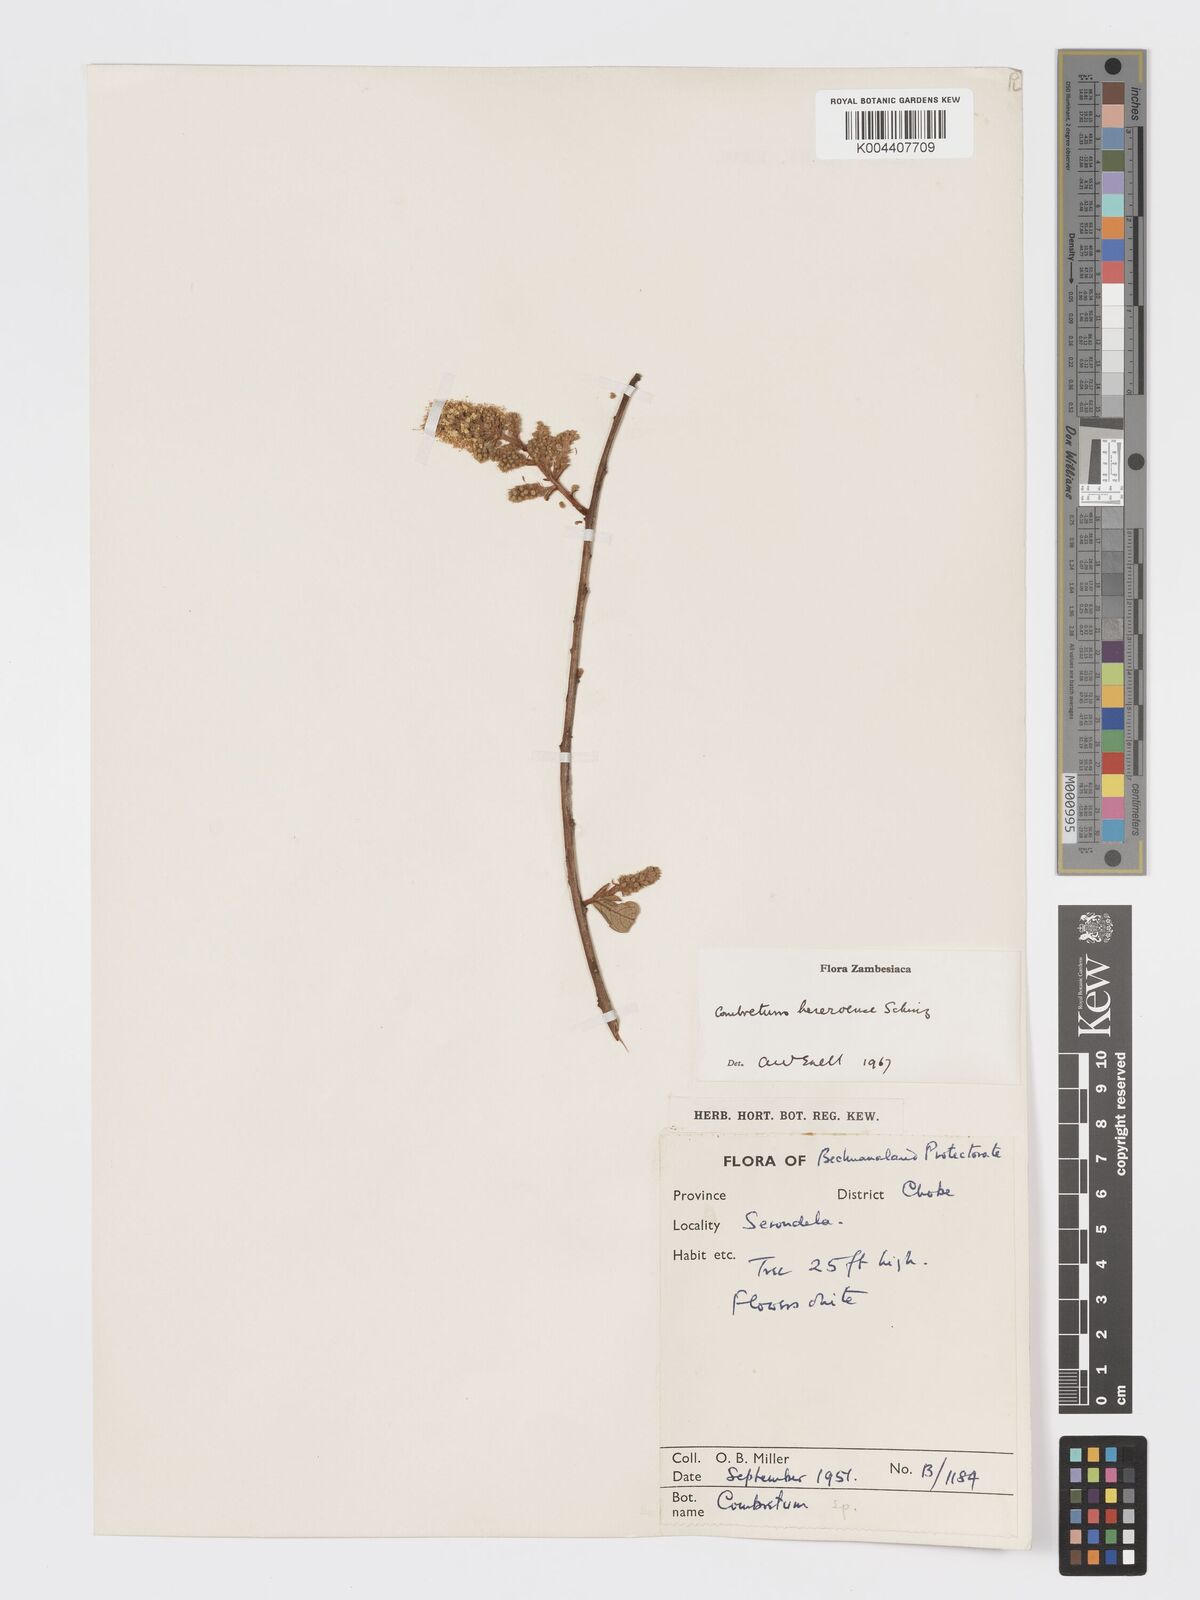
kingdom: Plantae
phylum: Tracheophyta
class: Magnoliopsida
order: Myrtales
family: Combretaceae
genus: Combretum
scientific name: Combretum hereroense
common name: Russet bushwillow
